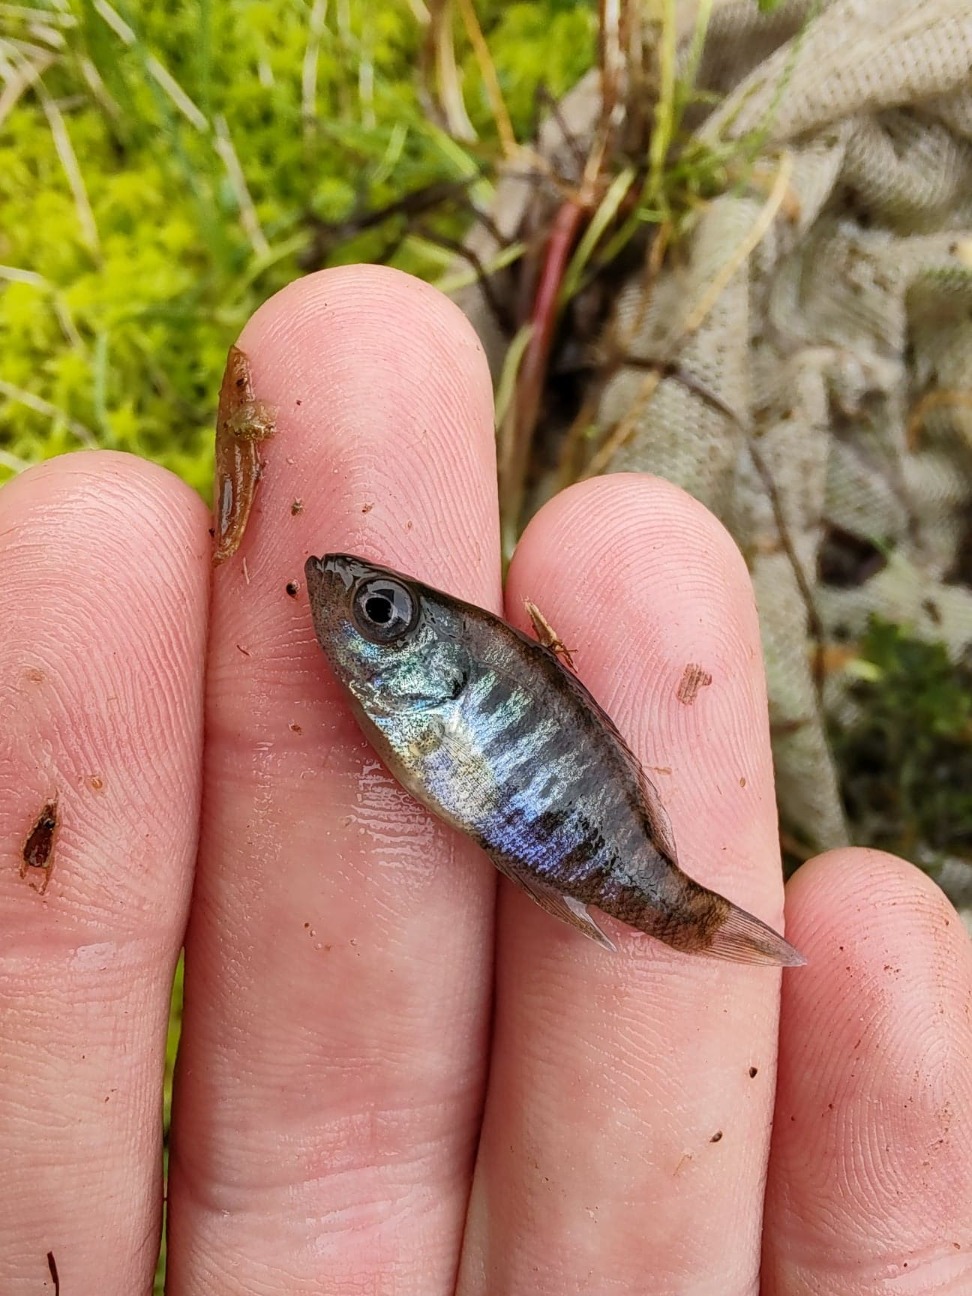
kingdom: Animalia
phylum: Chordata
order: Perciformes
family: Centrarchidae
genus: Lepomis
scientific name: Lepomis gibbosus
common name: Almindelig solaborre
